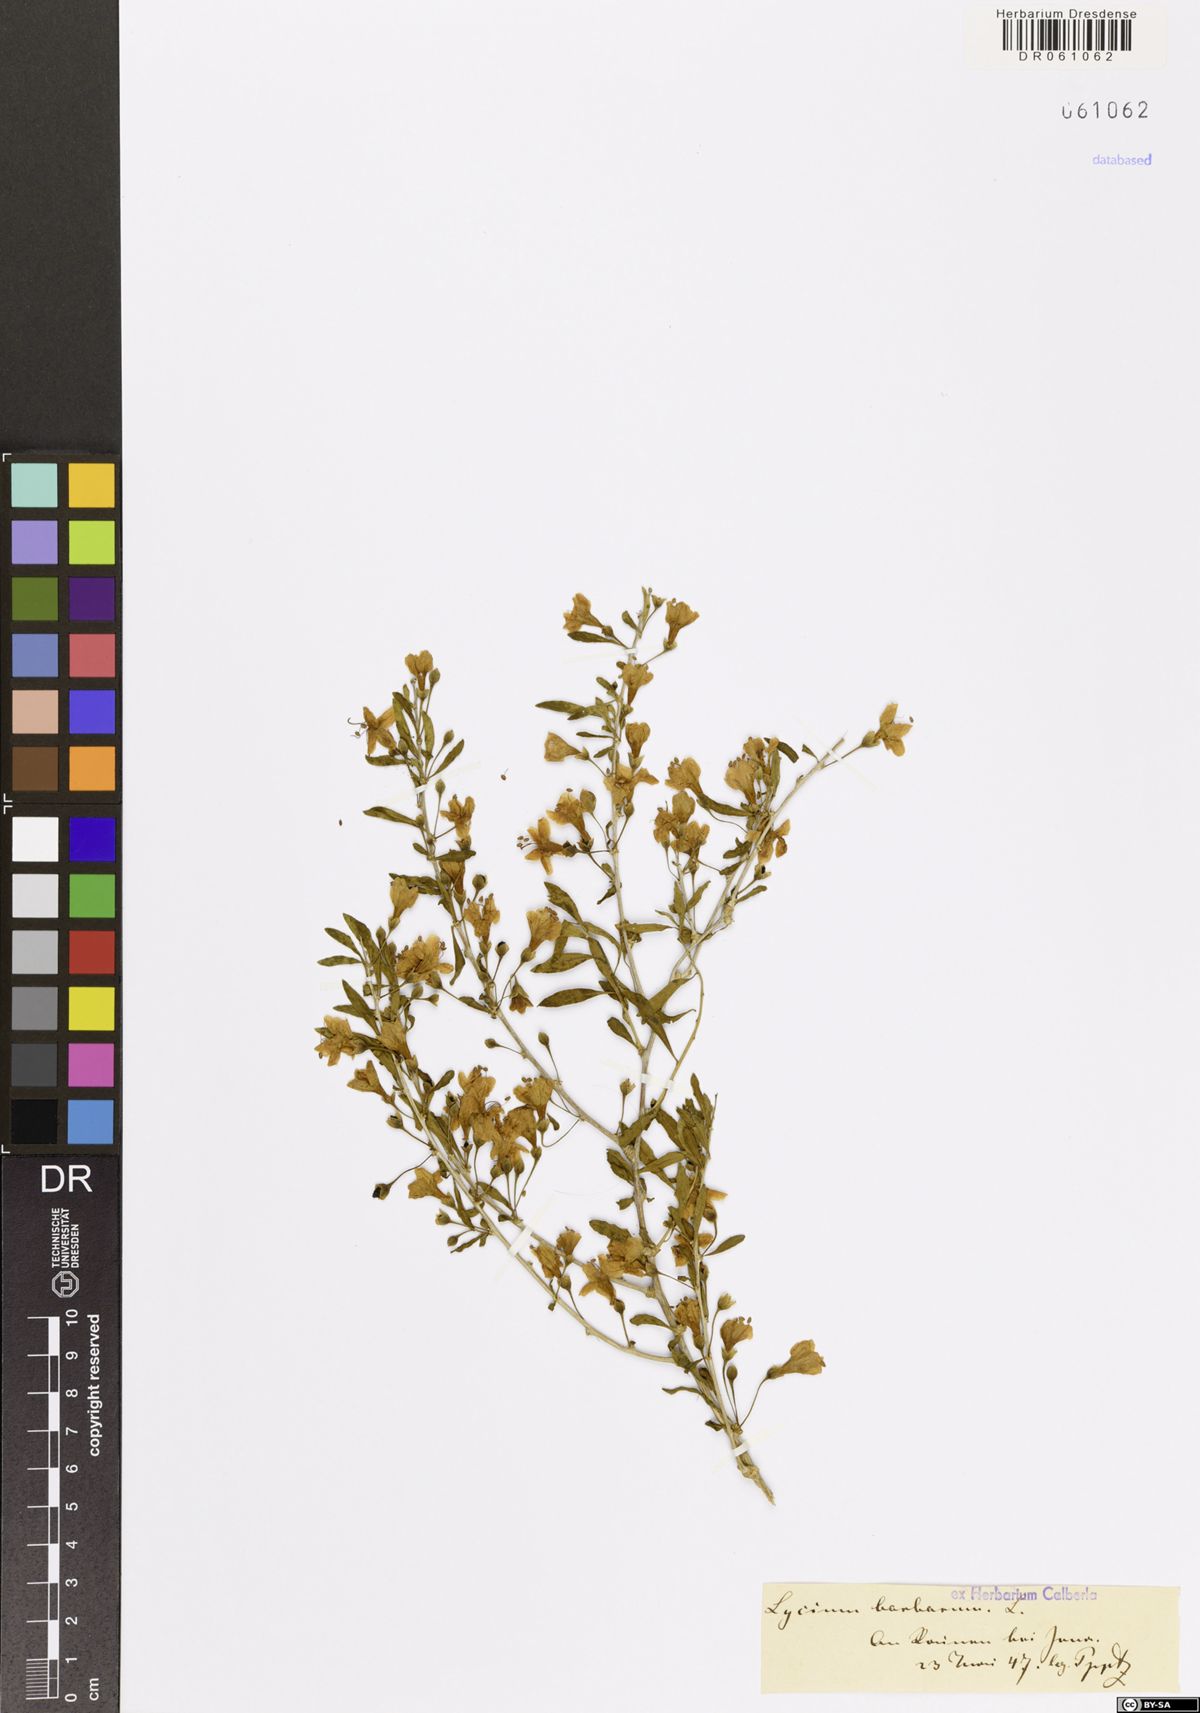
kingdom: Plantae
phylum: Tracheophyta
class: Magnoliopsida
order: Solanales
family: Solanaceae
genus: Lycium
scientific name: Lycium barbarum
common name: Duke of argyll's teaplant
